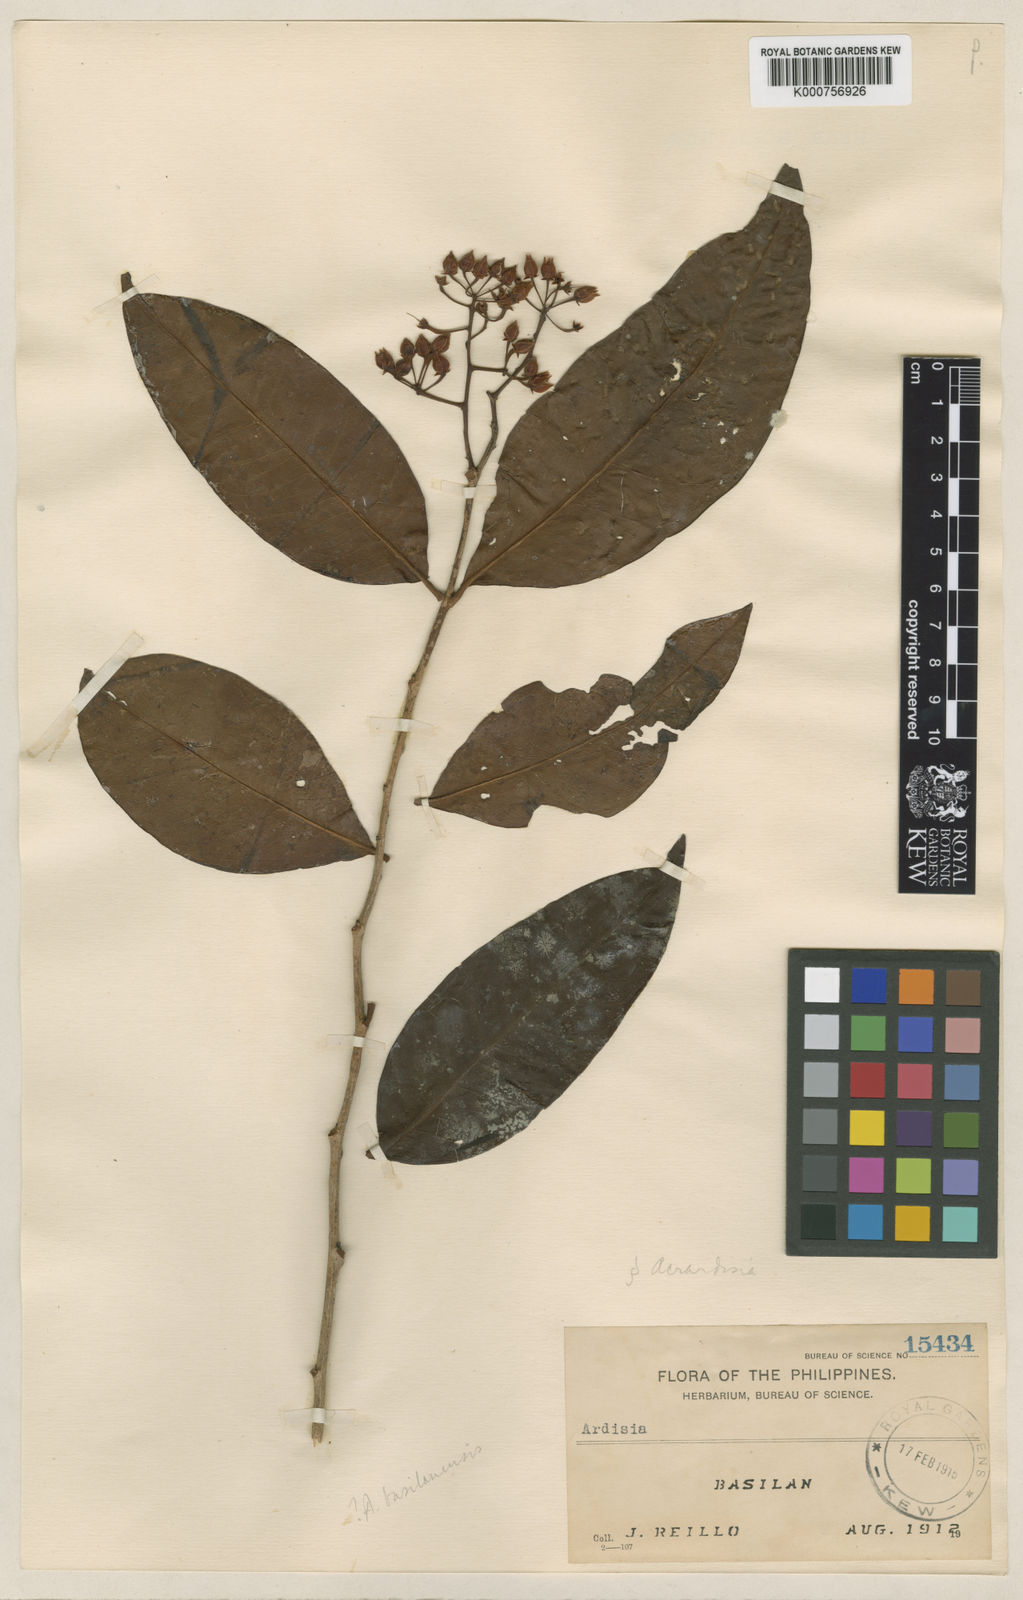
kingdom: Plantae
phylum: Tracheophyta
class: Magnoliopsida
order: Ericales
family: Primulaceae
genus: Ardisia
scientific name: Ardisia
